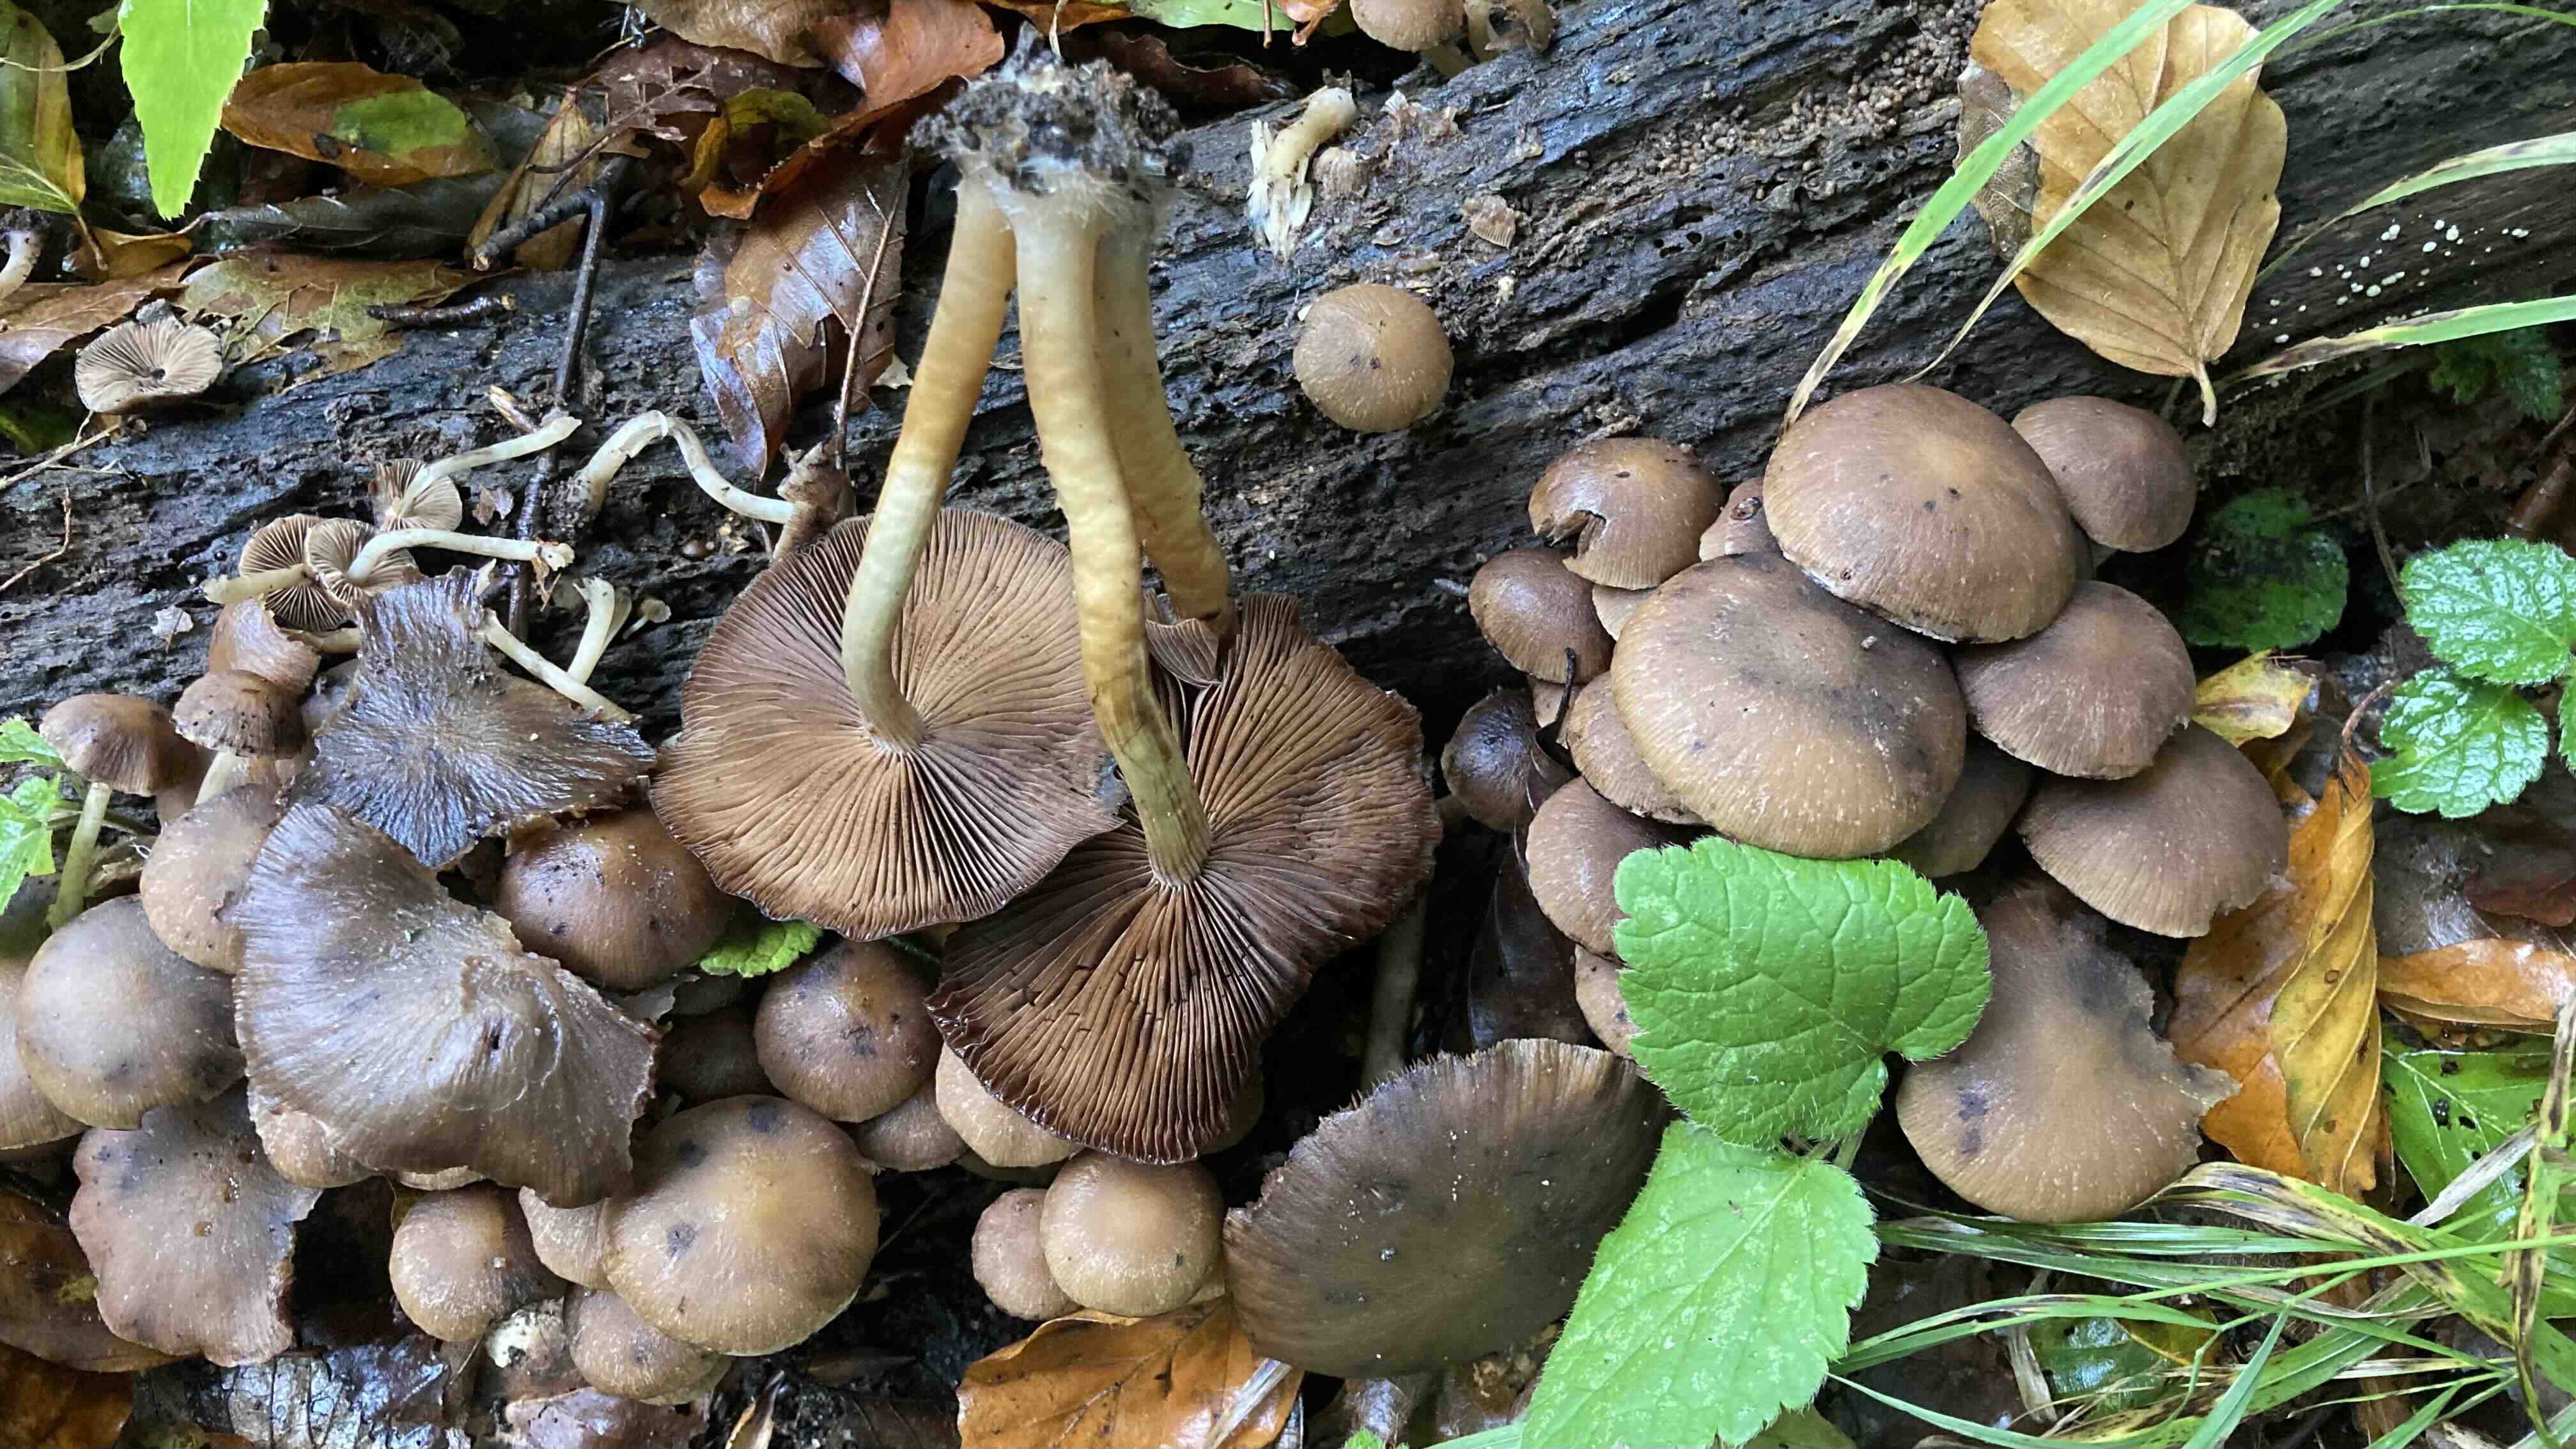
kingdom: Fungi
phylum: Basidiomycota
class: Agaricomycetes
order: Agaricales
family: Psathyrellaceae
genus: Psathyrella
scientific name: Psathyrella piluliformis
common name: lysstokket mørkhat
